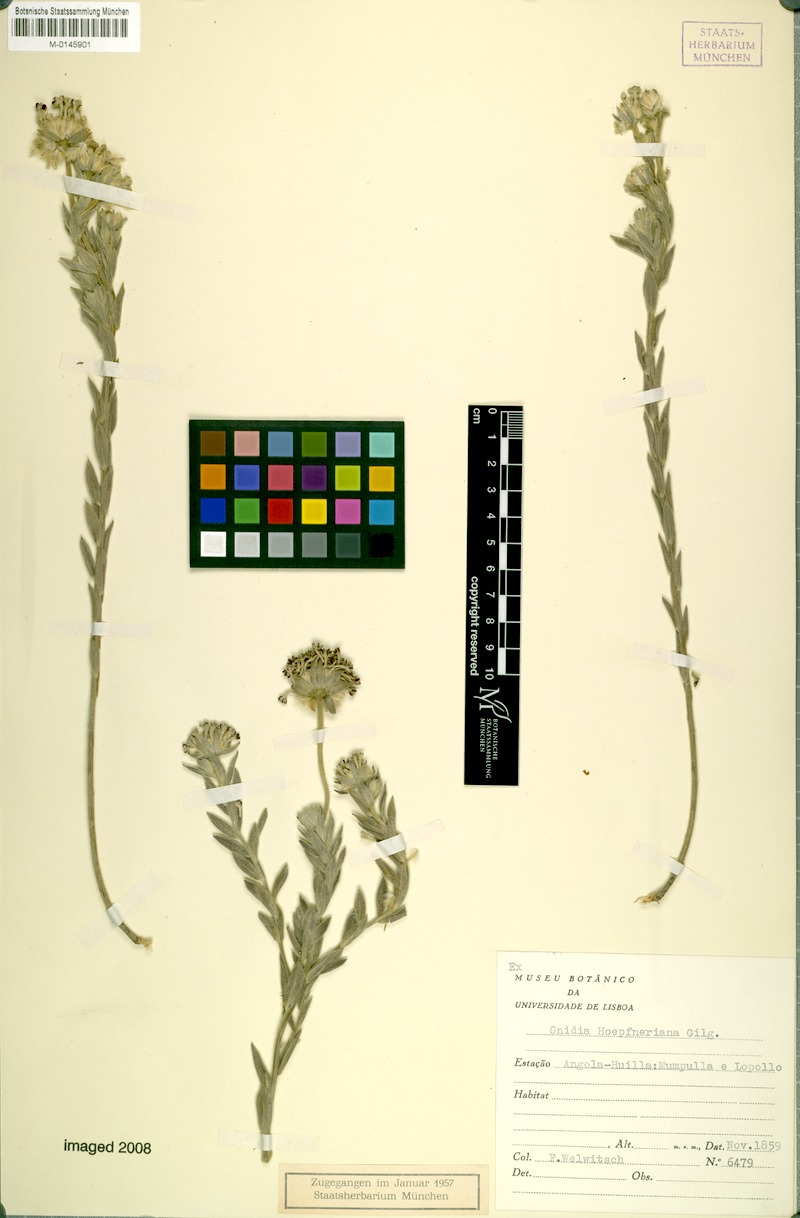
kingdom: Plantae
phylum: Tracheophyta
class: Magnoliopsida
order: Malvales
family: Thymelaeaceae
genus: Gnidia
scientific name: Gnidia kraussiana
